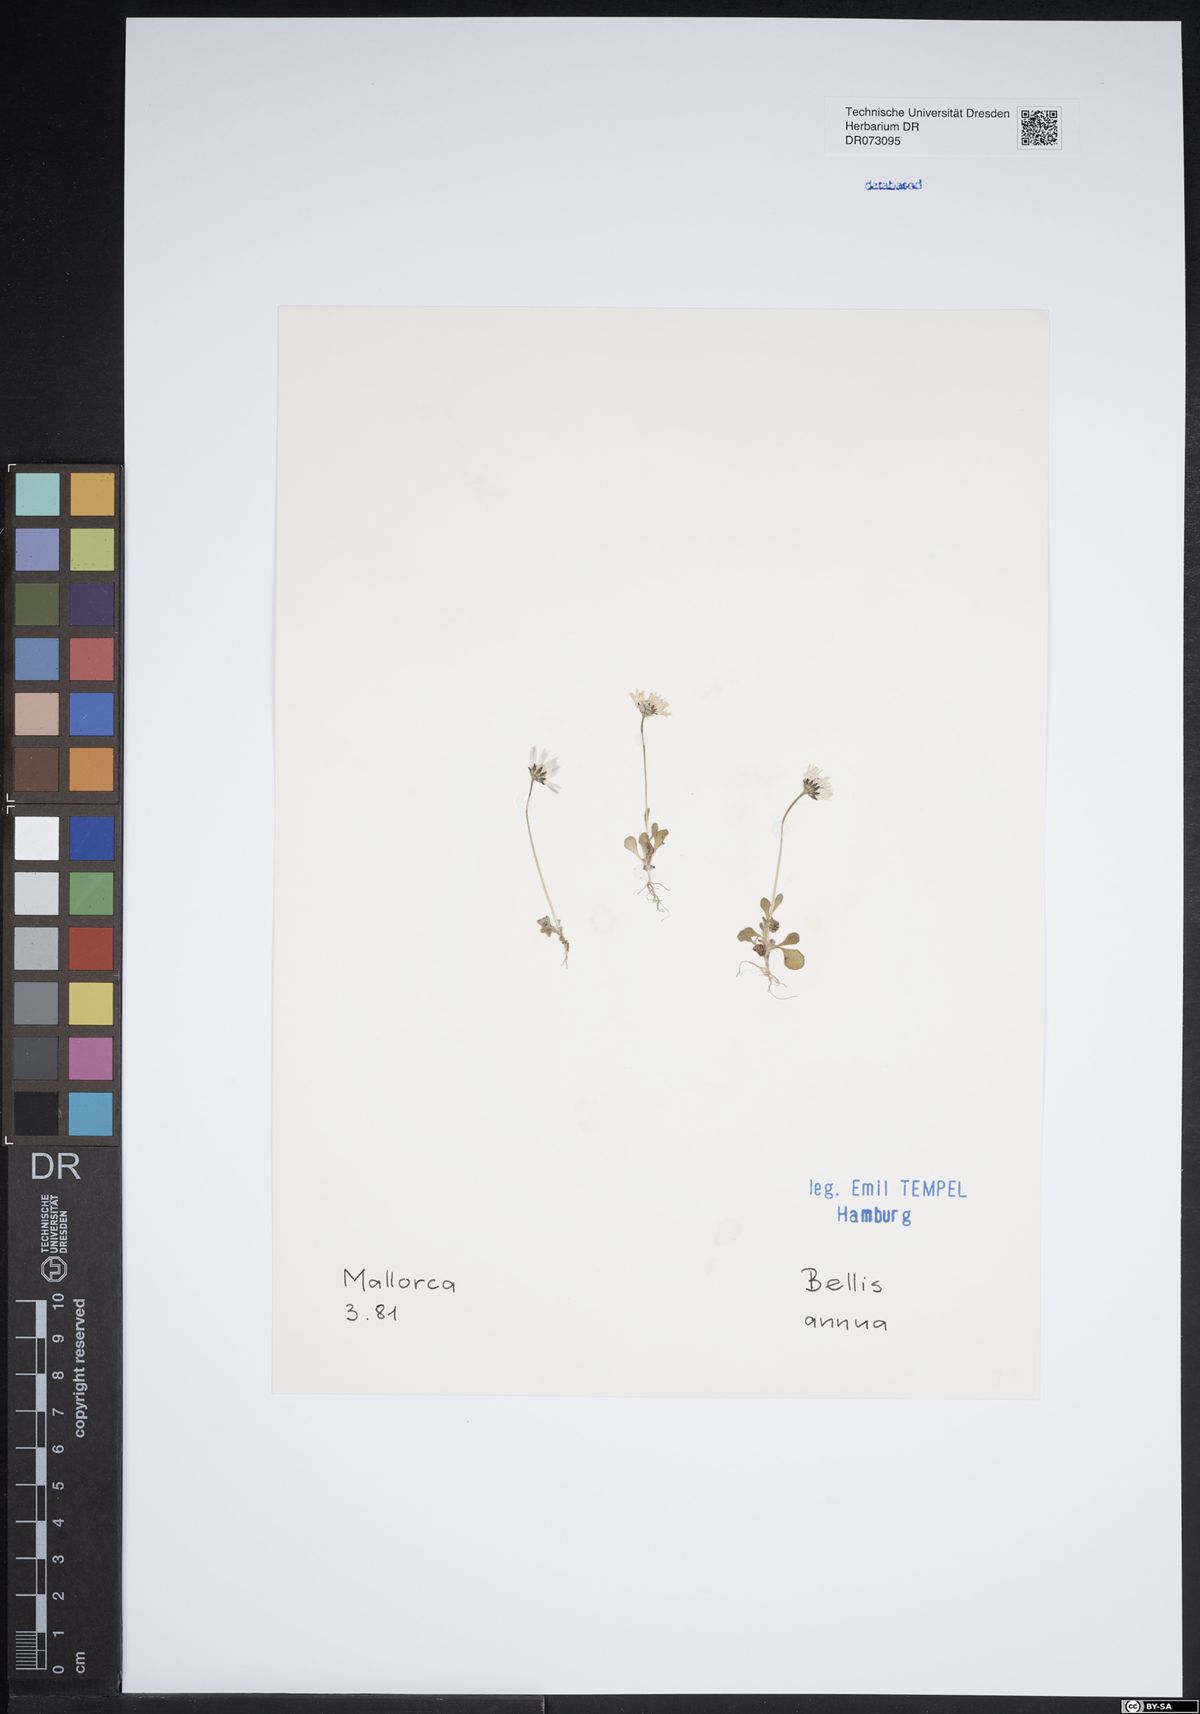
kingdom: Plantae
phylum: Tracheophyta
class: Magnoliopsida
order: Asterales
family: Asteraceae
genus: Pallenis
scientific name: Pallenis maritima
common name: Golden coin daisy
